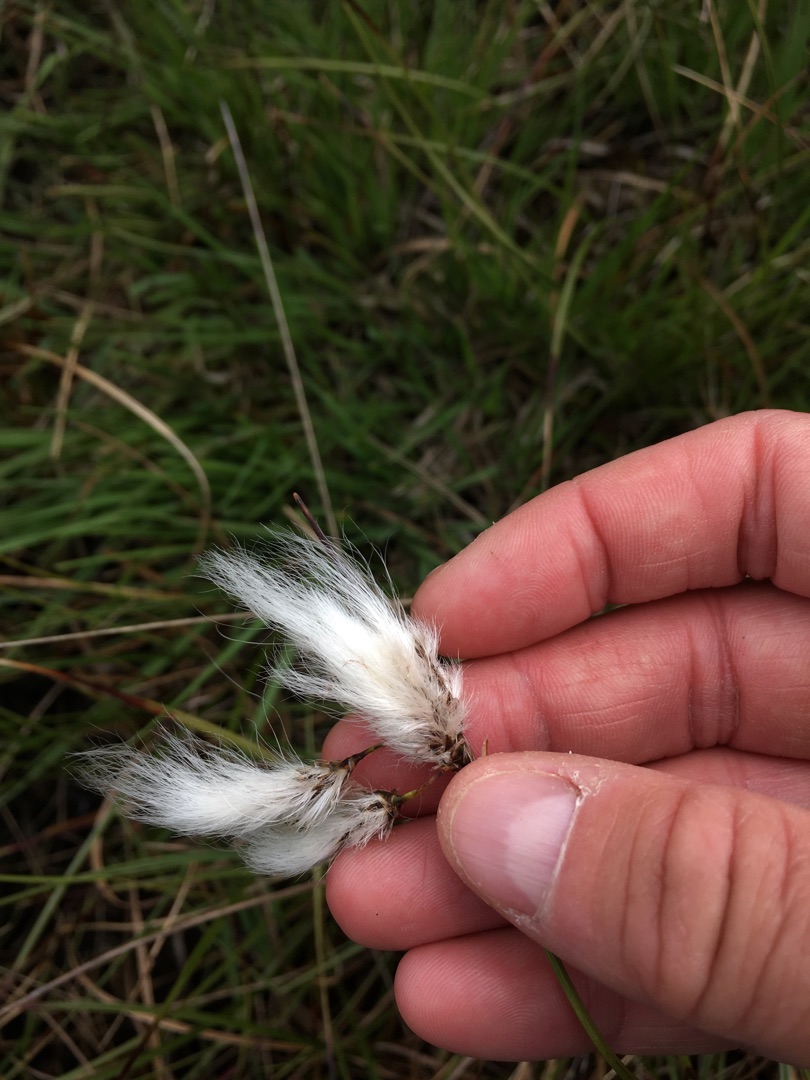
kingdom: Plantae
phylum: Tracheophyta
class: Liliopsida
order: Poales
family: Cyperaceae
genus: Eriophorum
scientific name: Eriophorum angustifolium
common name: Smalbladet kæruld
